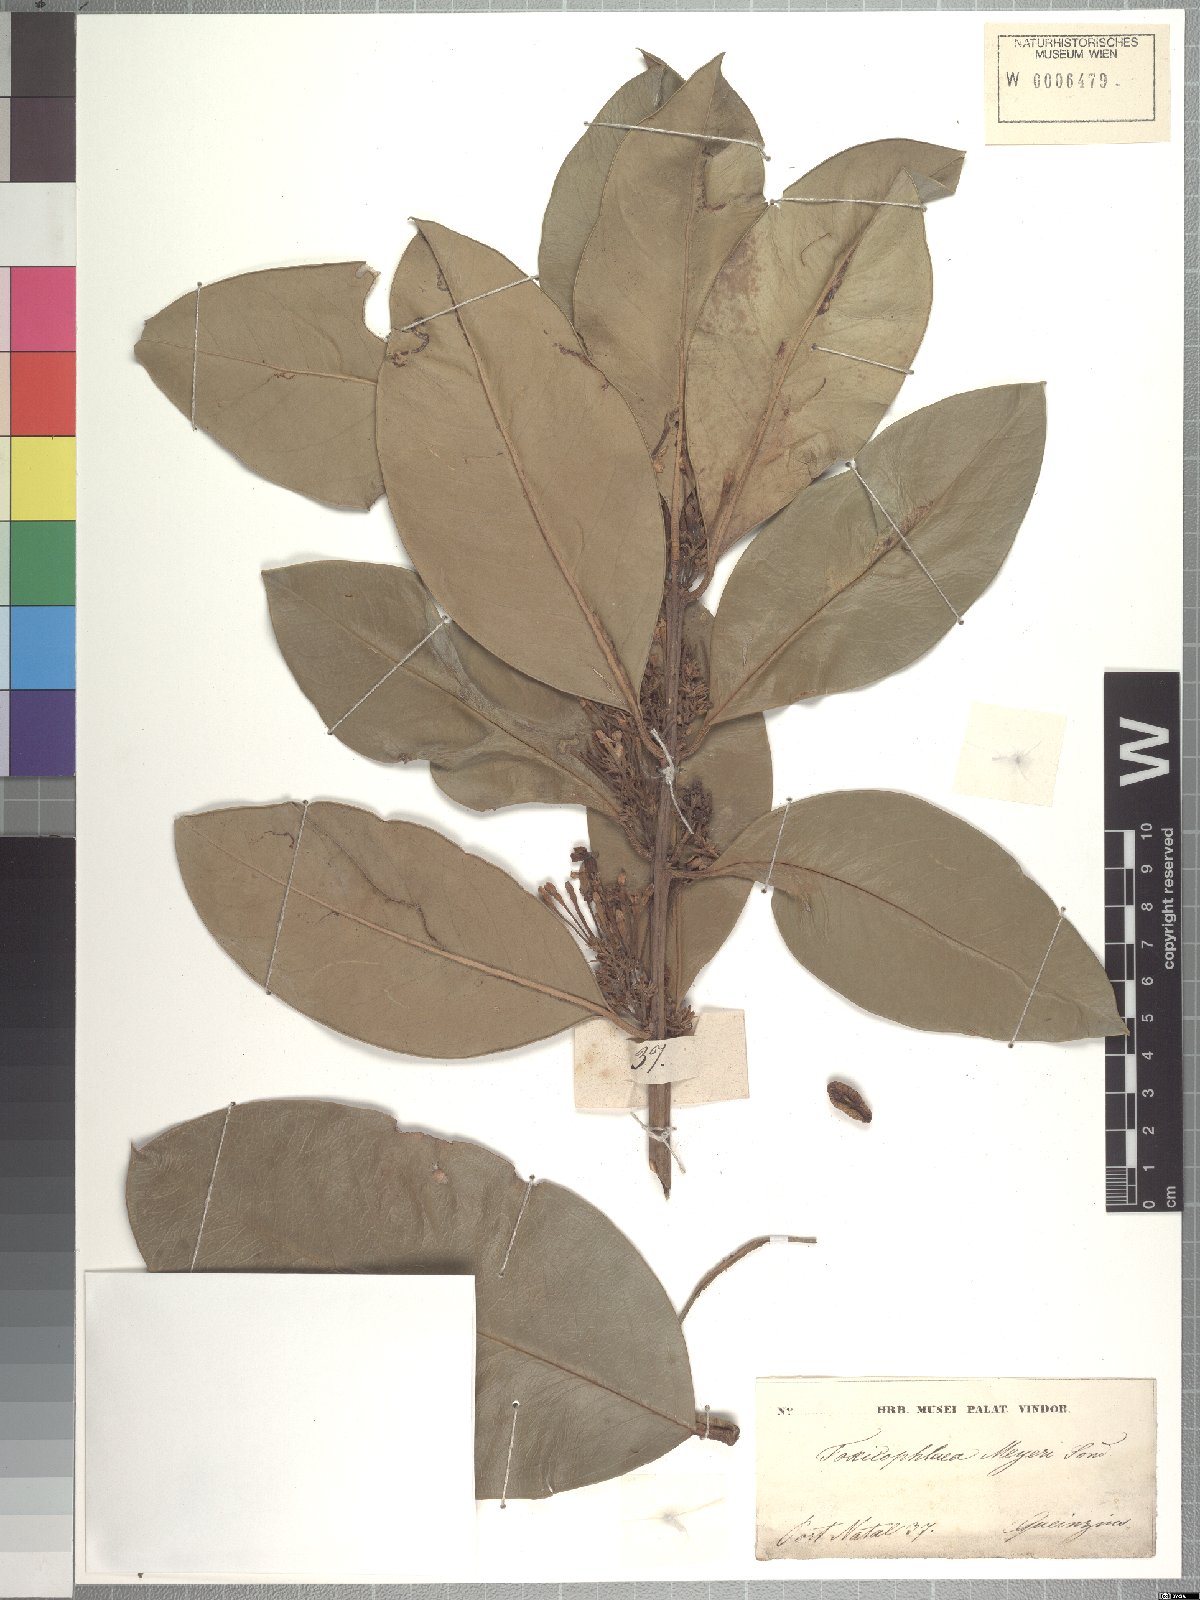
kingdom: Plantae
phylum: Tracheophyta
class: Magnoliopsida
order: Gentianales
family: Apocynaceae
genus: Acokanthera
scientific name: Acokanthera oblongifolia
